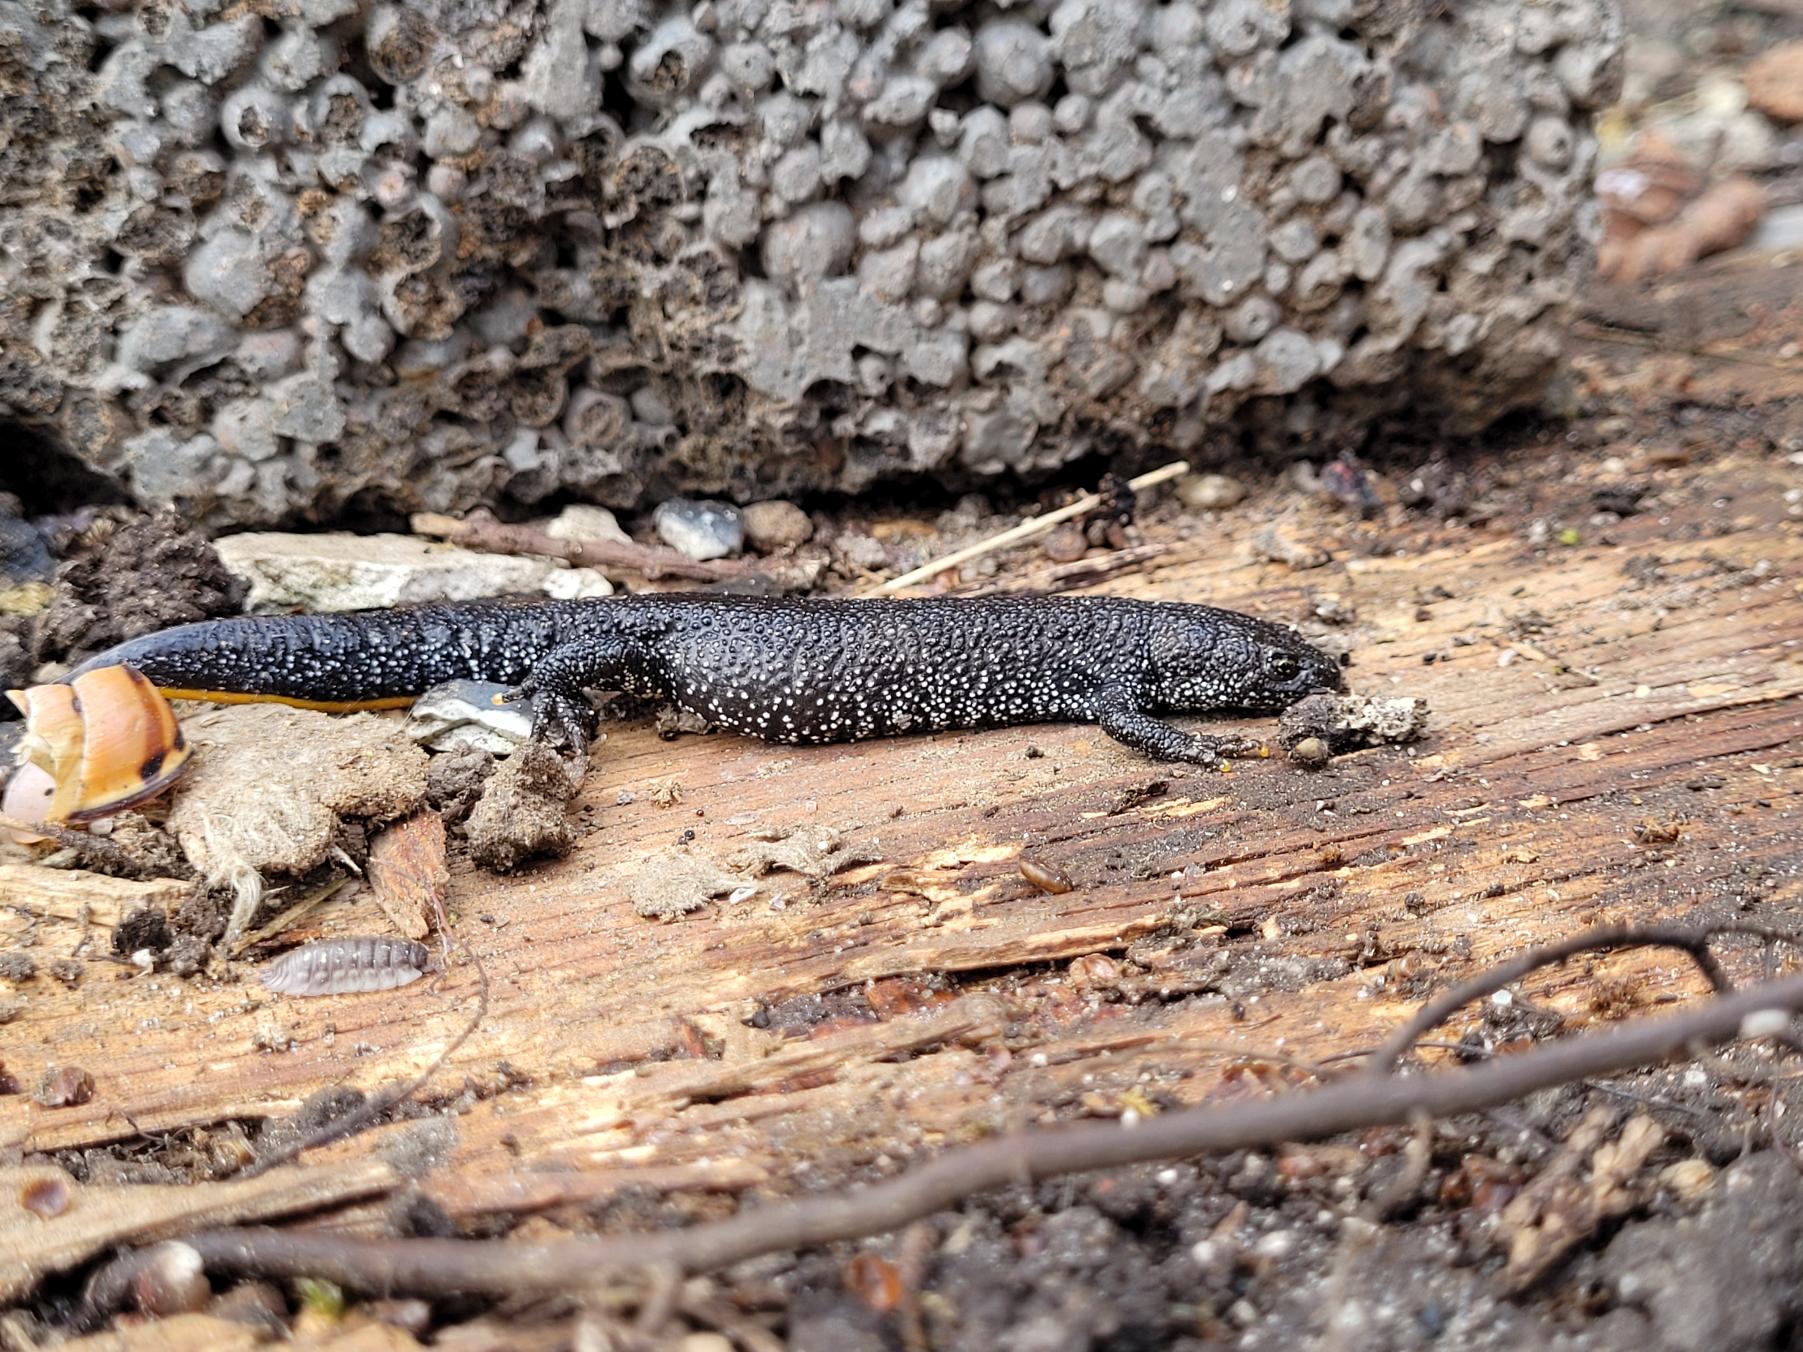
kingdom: Animalia
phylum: Chordata
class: Amphibia
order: Caudata
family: Salamandridae
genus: Triturus
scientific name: Triturus cristatus
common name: Stor vandsalamander
